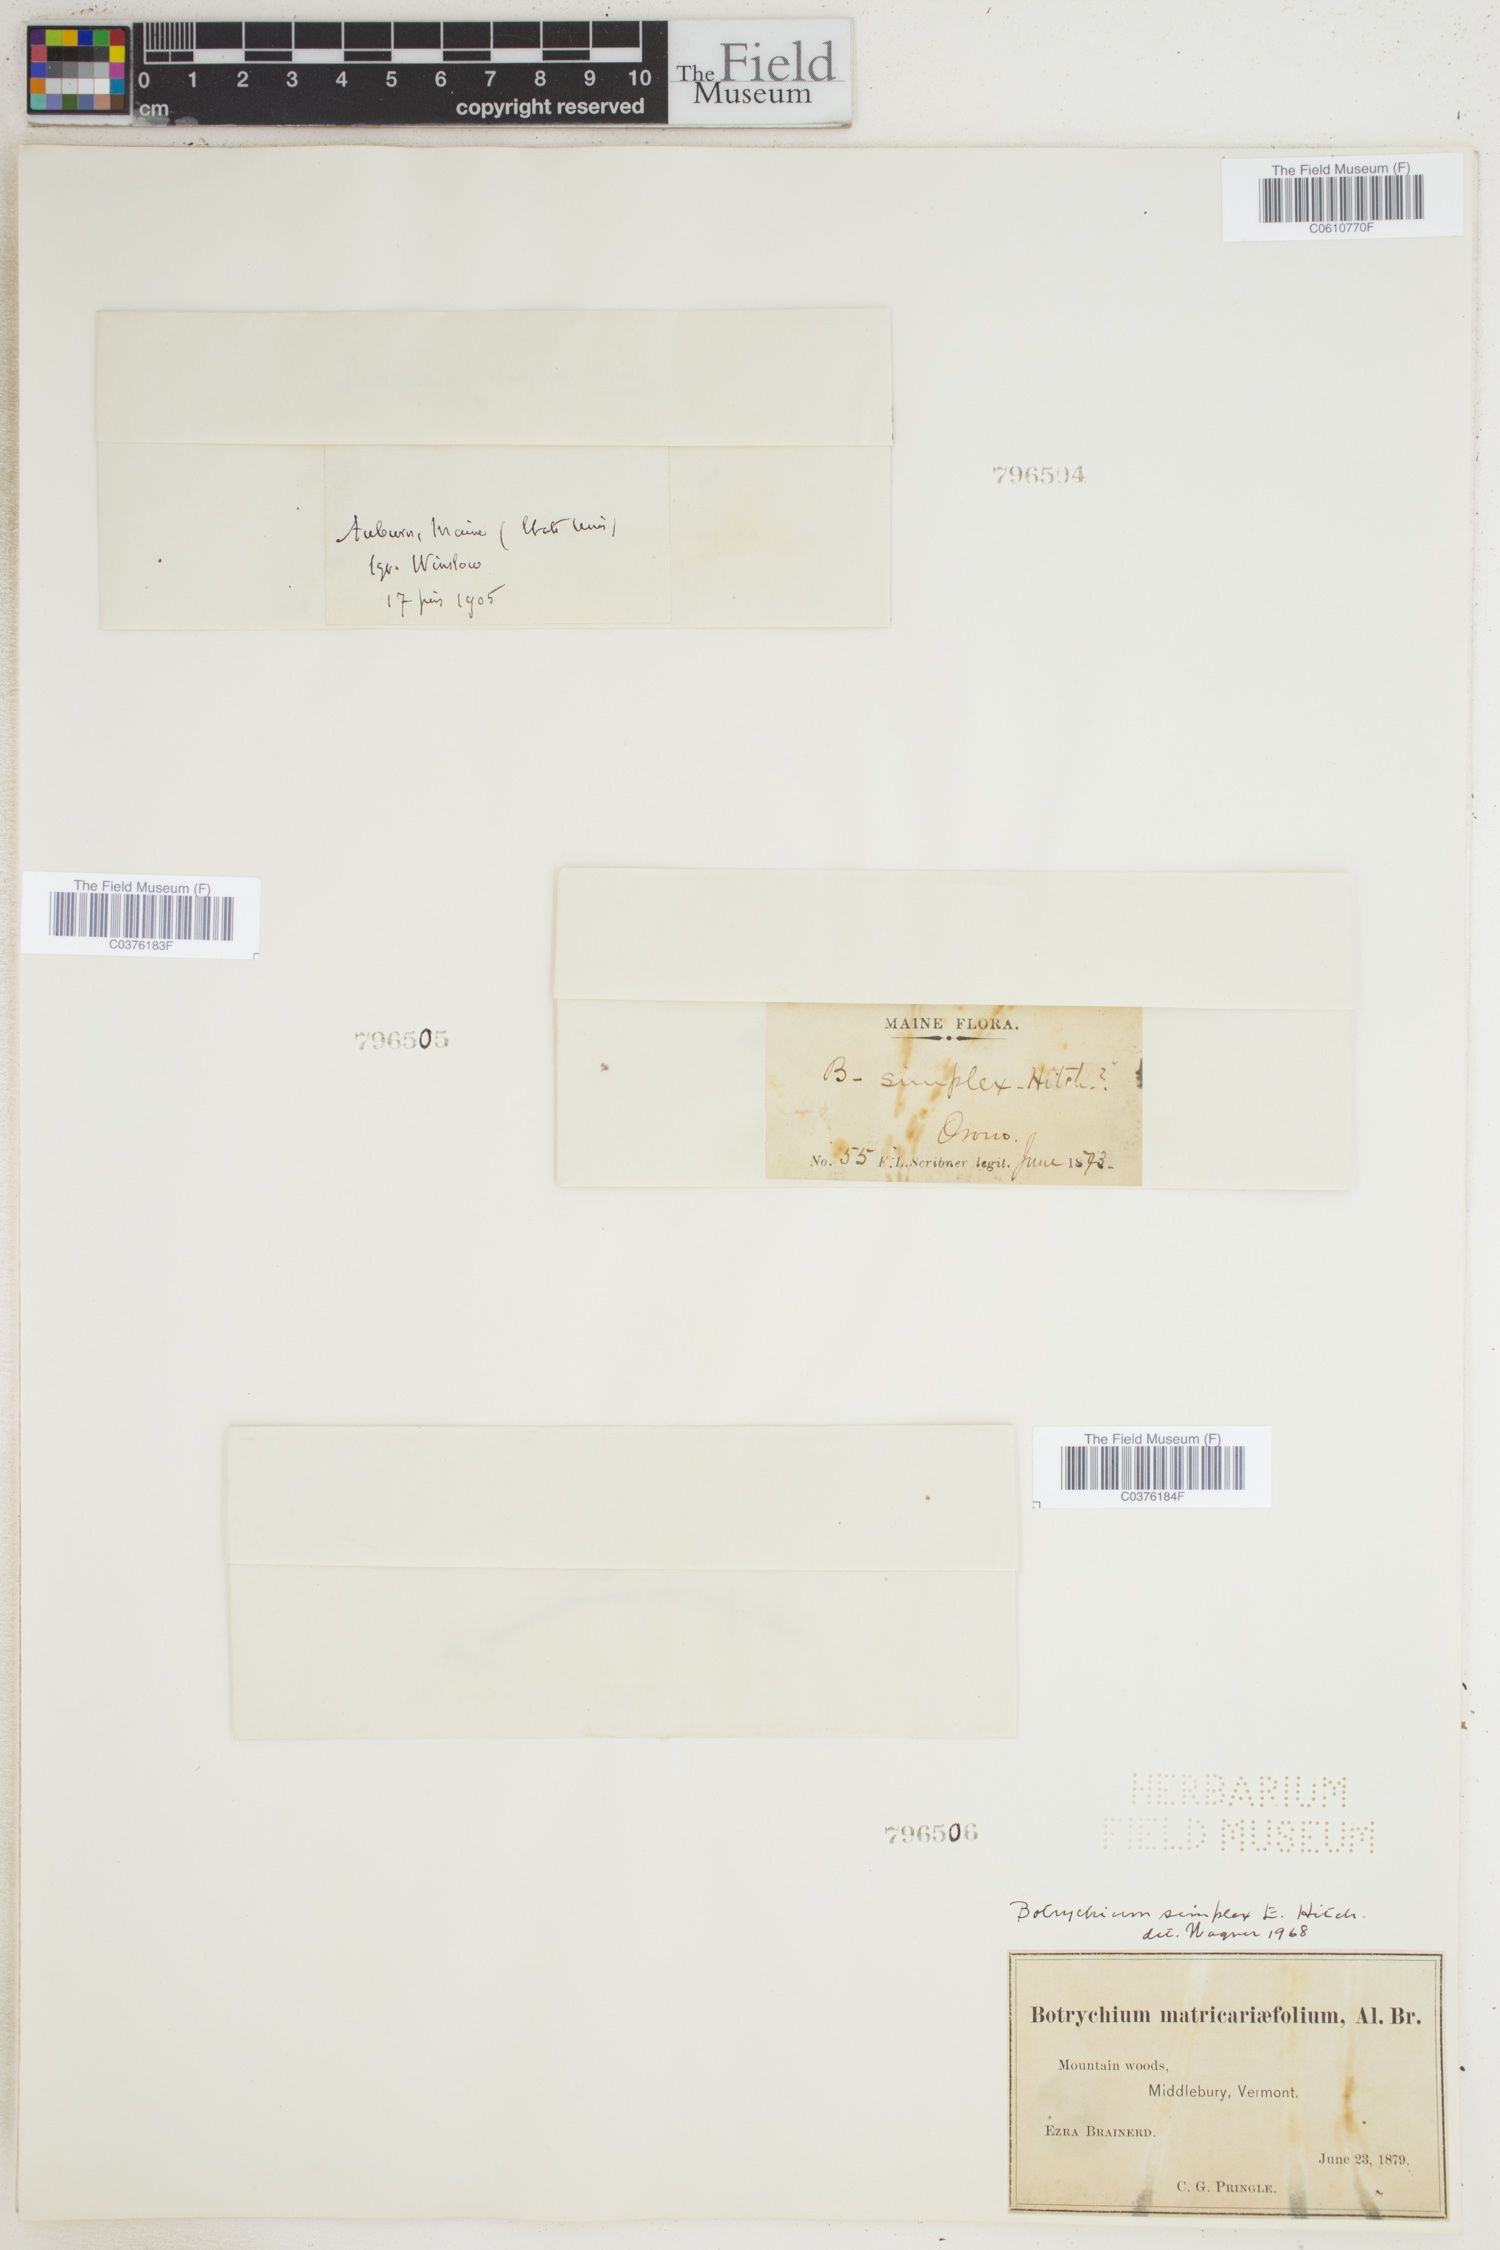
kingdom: Plantae
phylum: Tracheophyta
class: Polypodiopsida
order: Ophioglossales
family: Ophioglossaceae
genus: Botrychium
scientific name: Botrychium simplex
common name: Least moonwort
